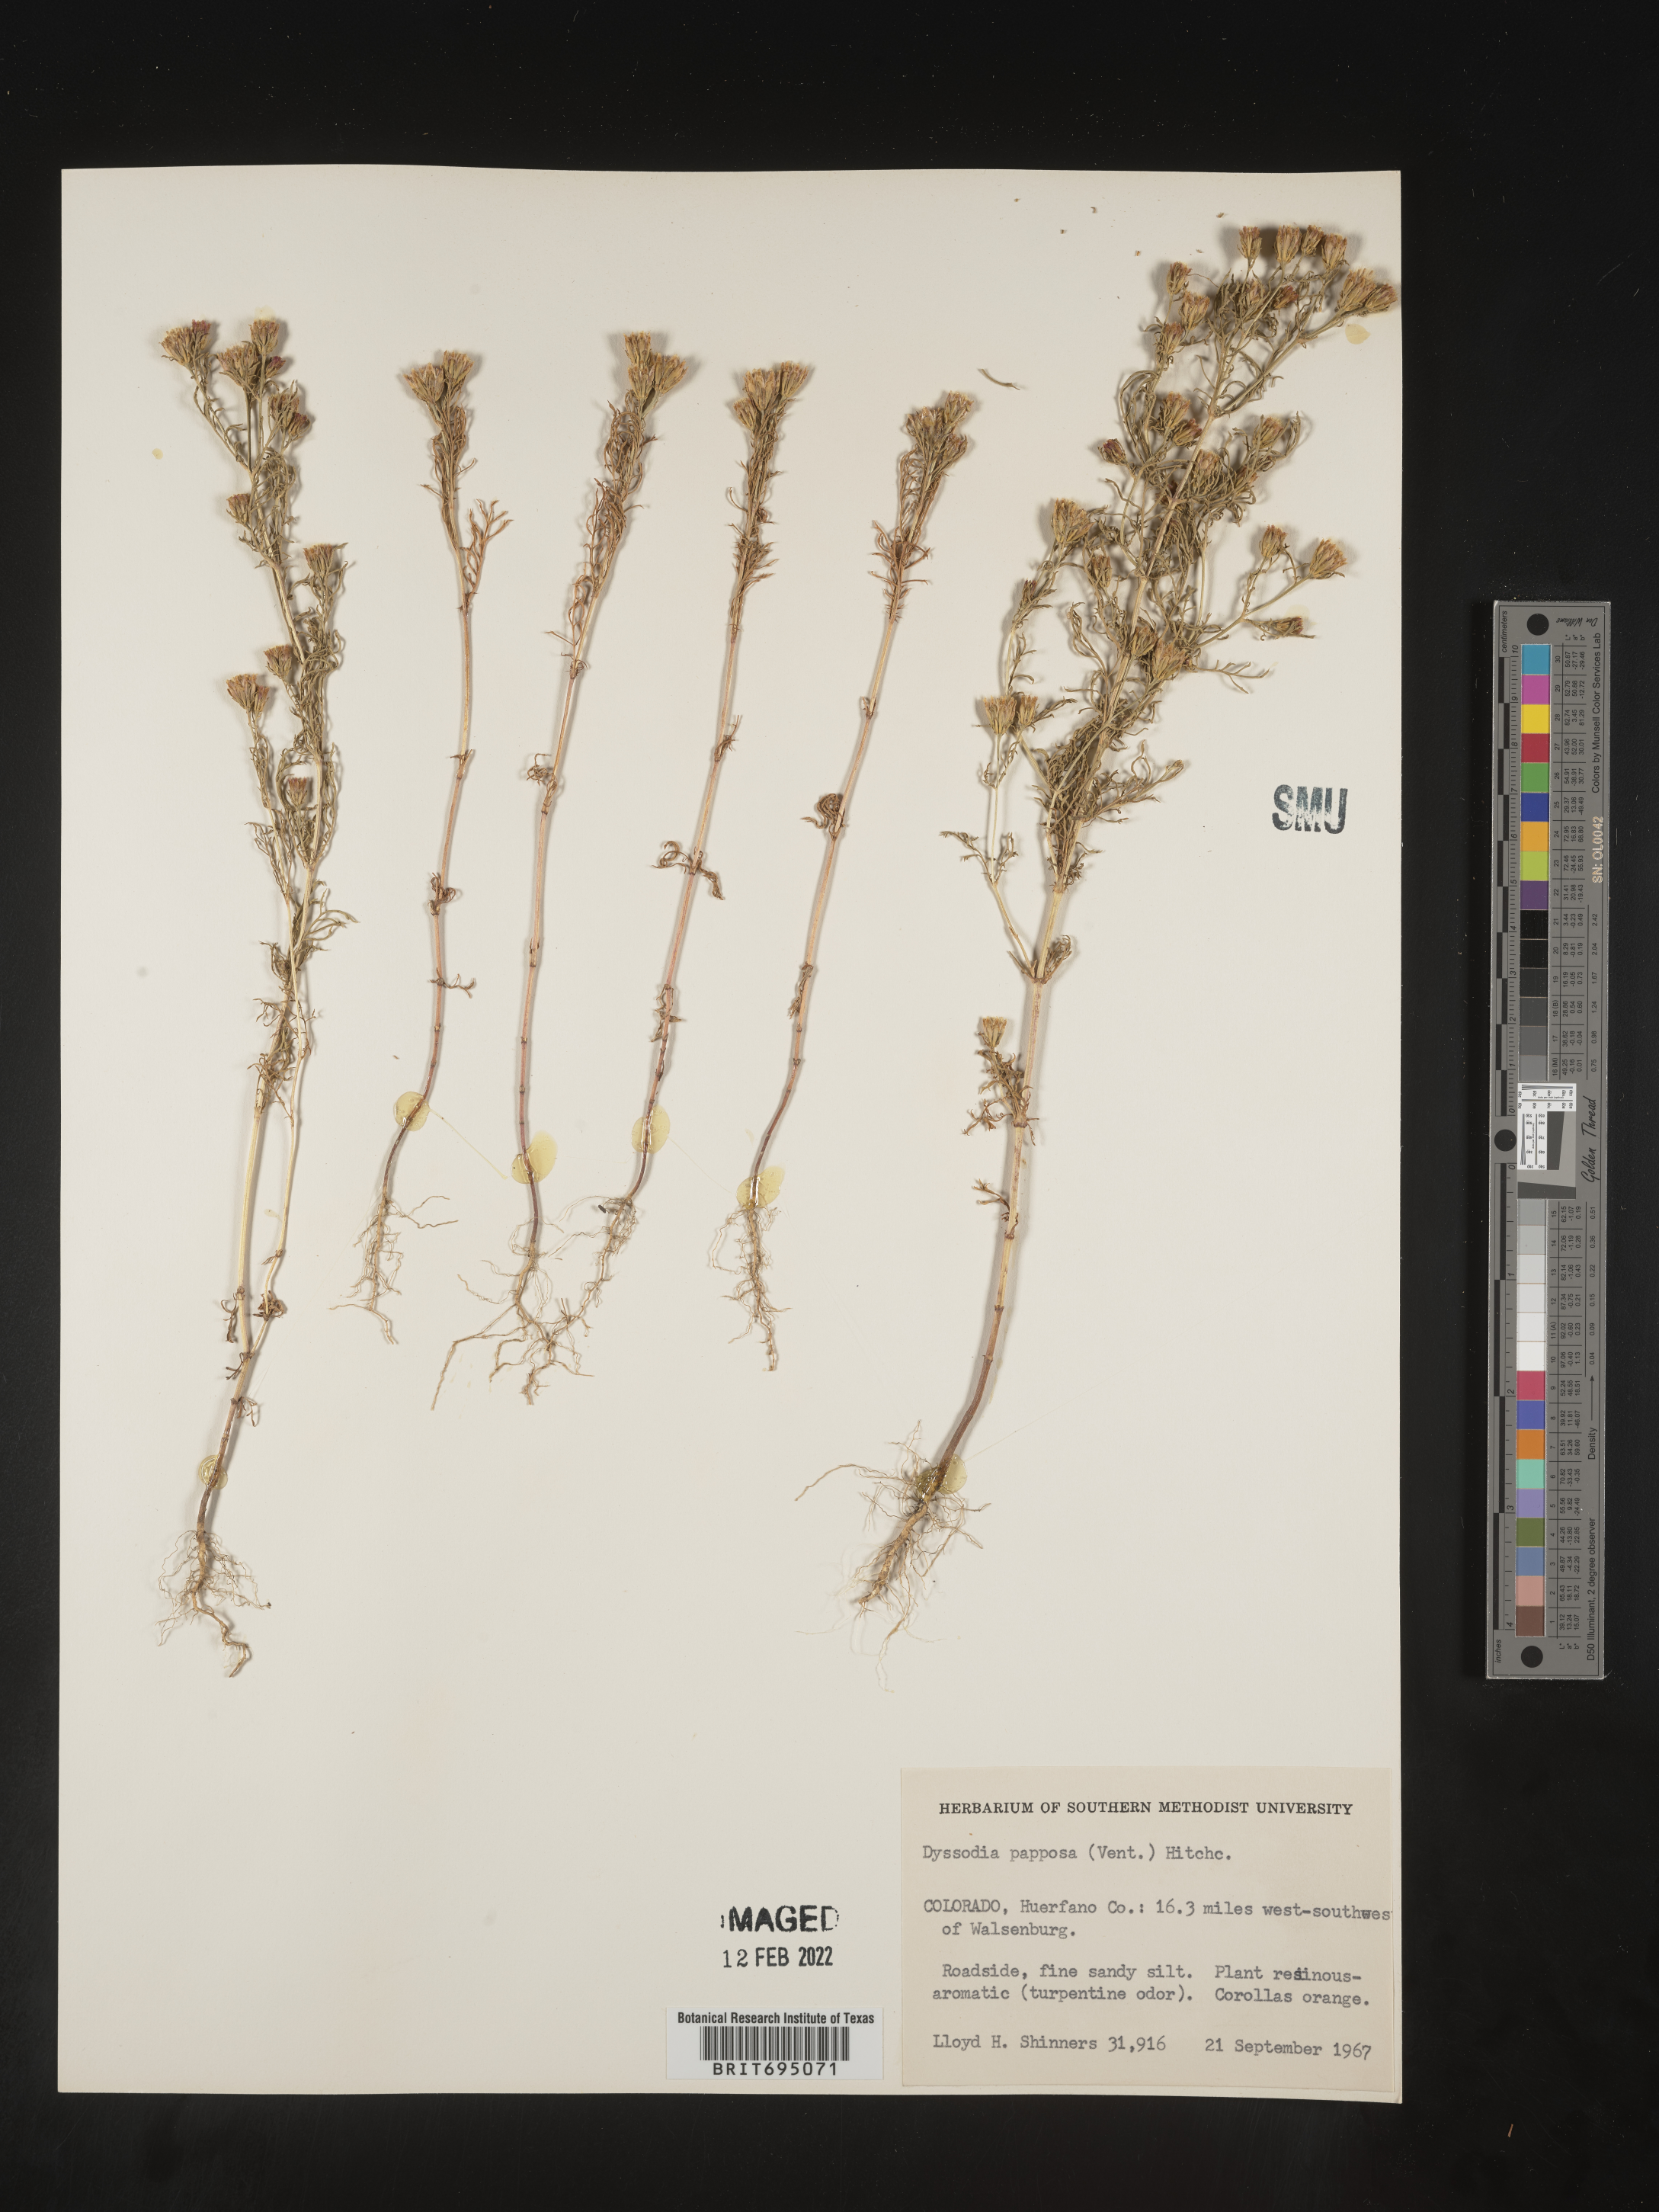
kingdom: Plantae
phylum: Tracheophyta
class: Magnoliopsida
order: Asterales
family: Asteraceae
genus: Dyssodia
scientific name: Dyssodia papposa
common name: Dogweed
